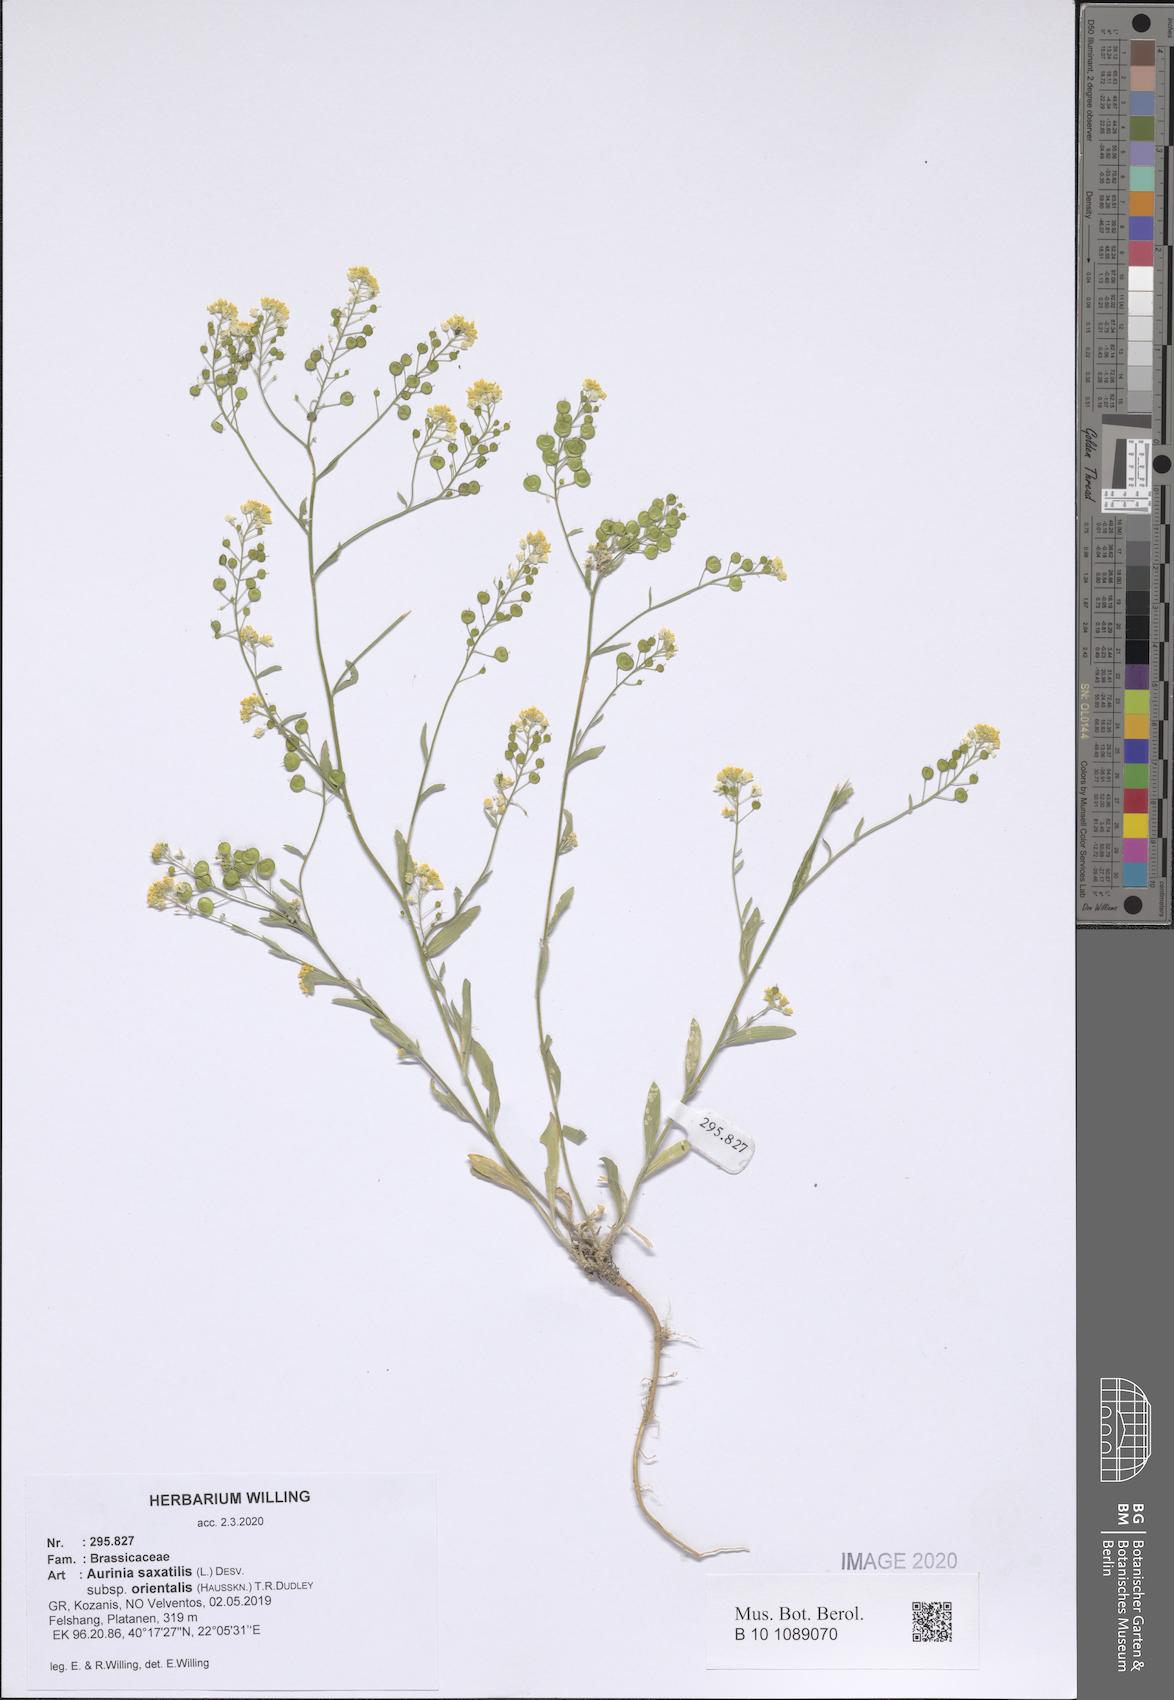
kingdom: Plantae
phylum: Tracheophyta
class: Magnoliopsida
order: Brassicales
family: Brassicaceae
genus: Aurinia
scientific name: Aurinia saxatilis
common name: Golden-tuft alyssum
